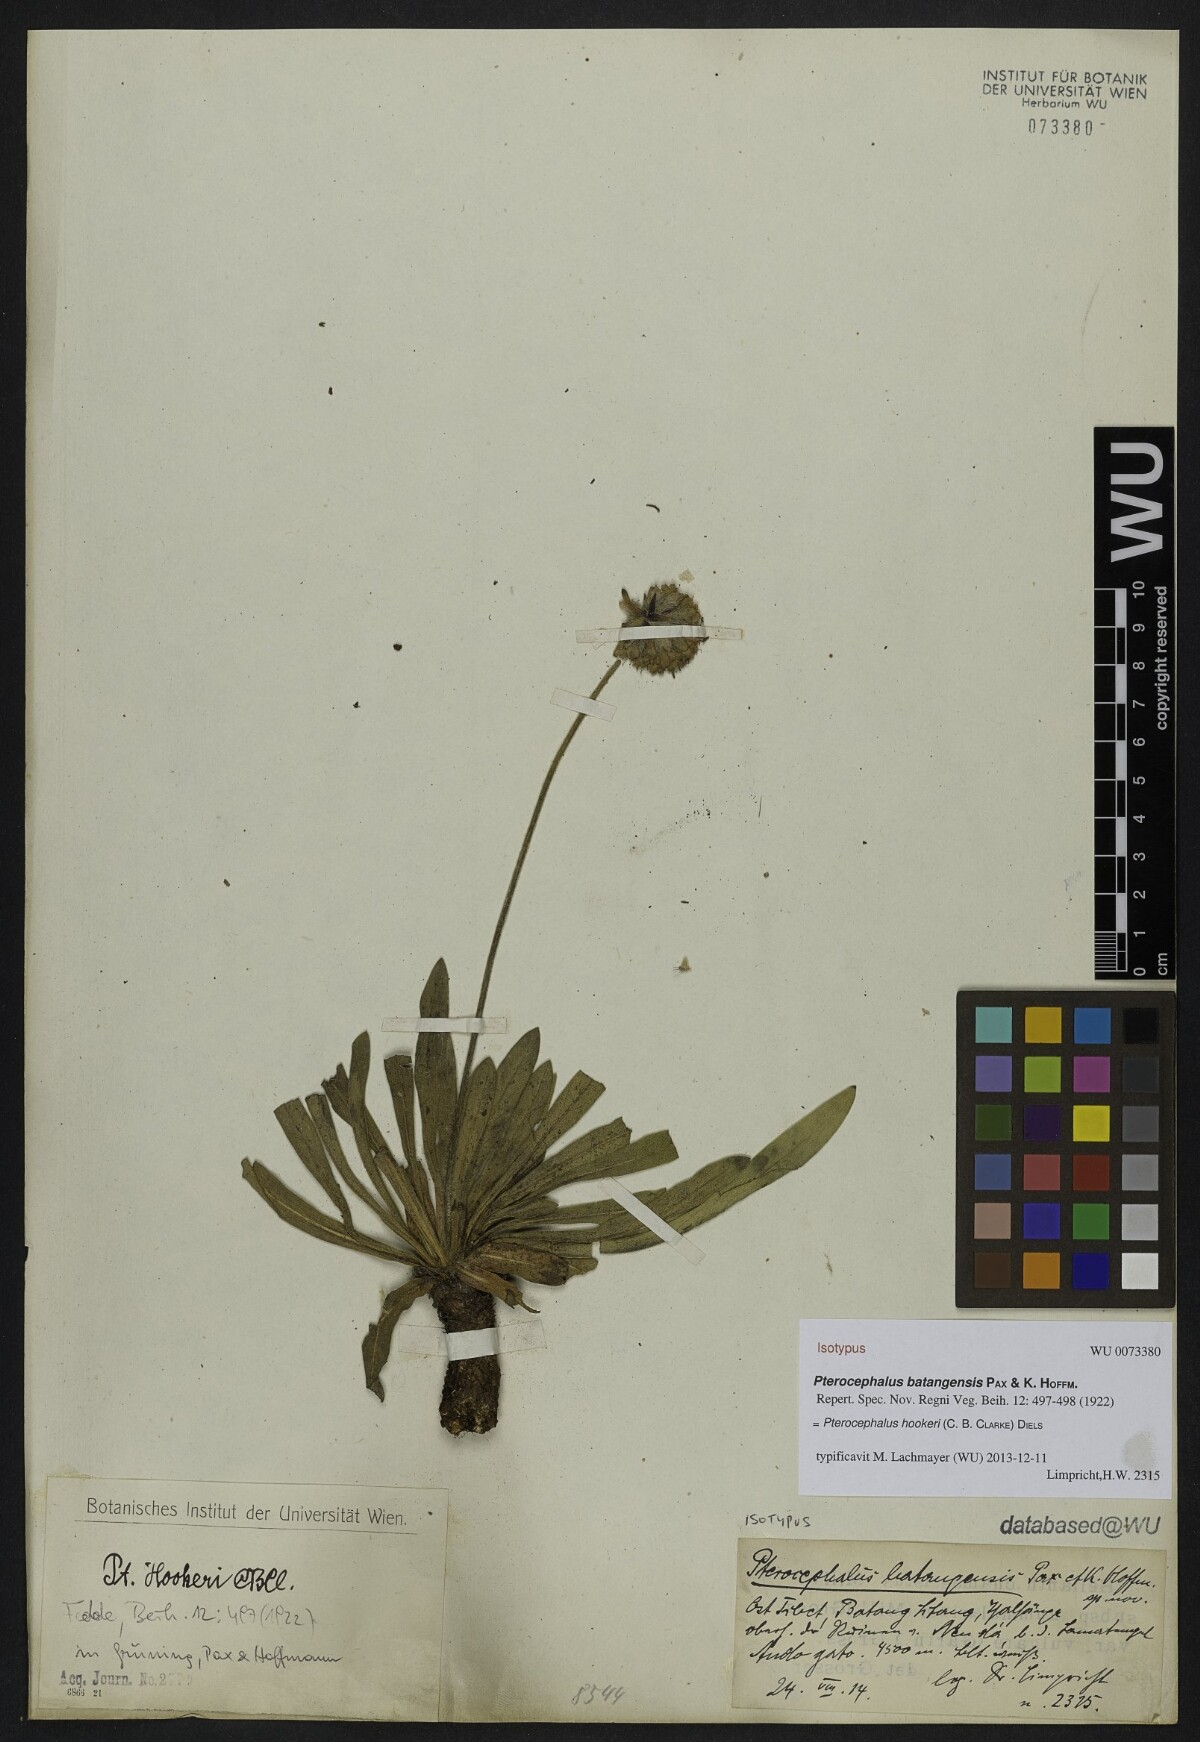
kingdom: Plantae
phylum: Tracheophyta
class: Magnoliopsida
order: Dipsacales
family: Caprifoliaceae
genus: Bassecoia
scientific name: Bassecoia hookeri
